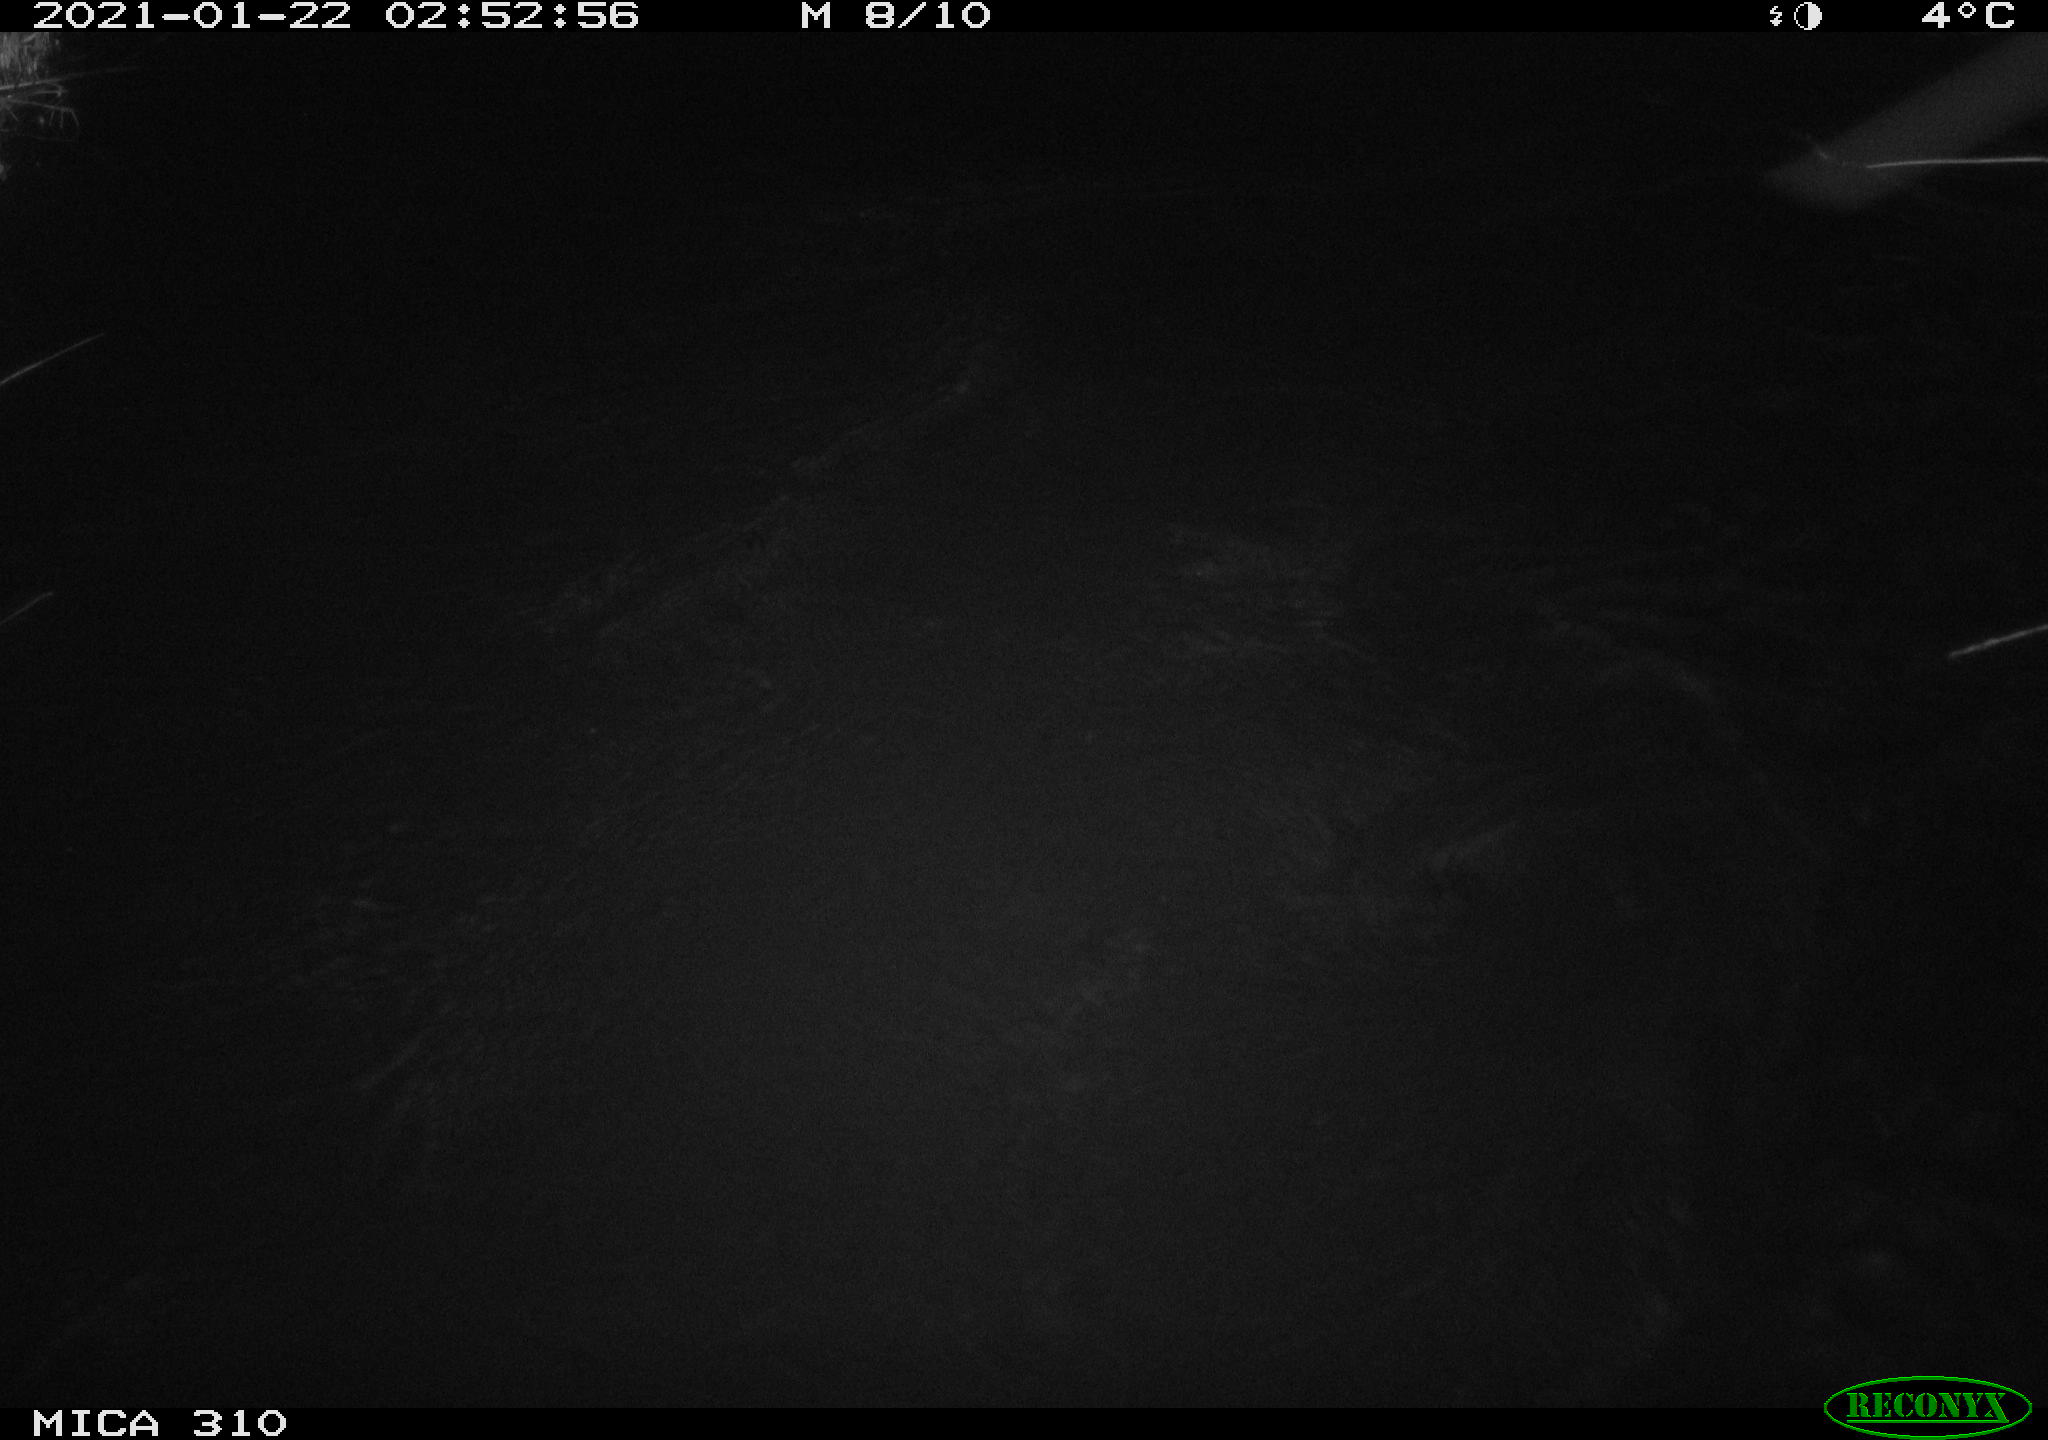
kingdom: Animalia
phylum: Chordata
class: Mammalia
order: Rodentia
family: Muridae
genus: Rattus
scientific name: Rattus norvegicus
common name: Brown rat
